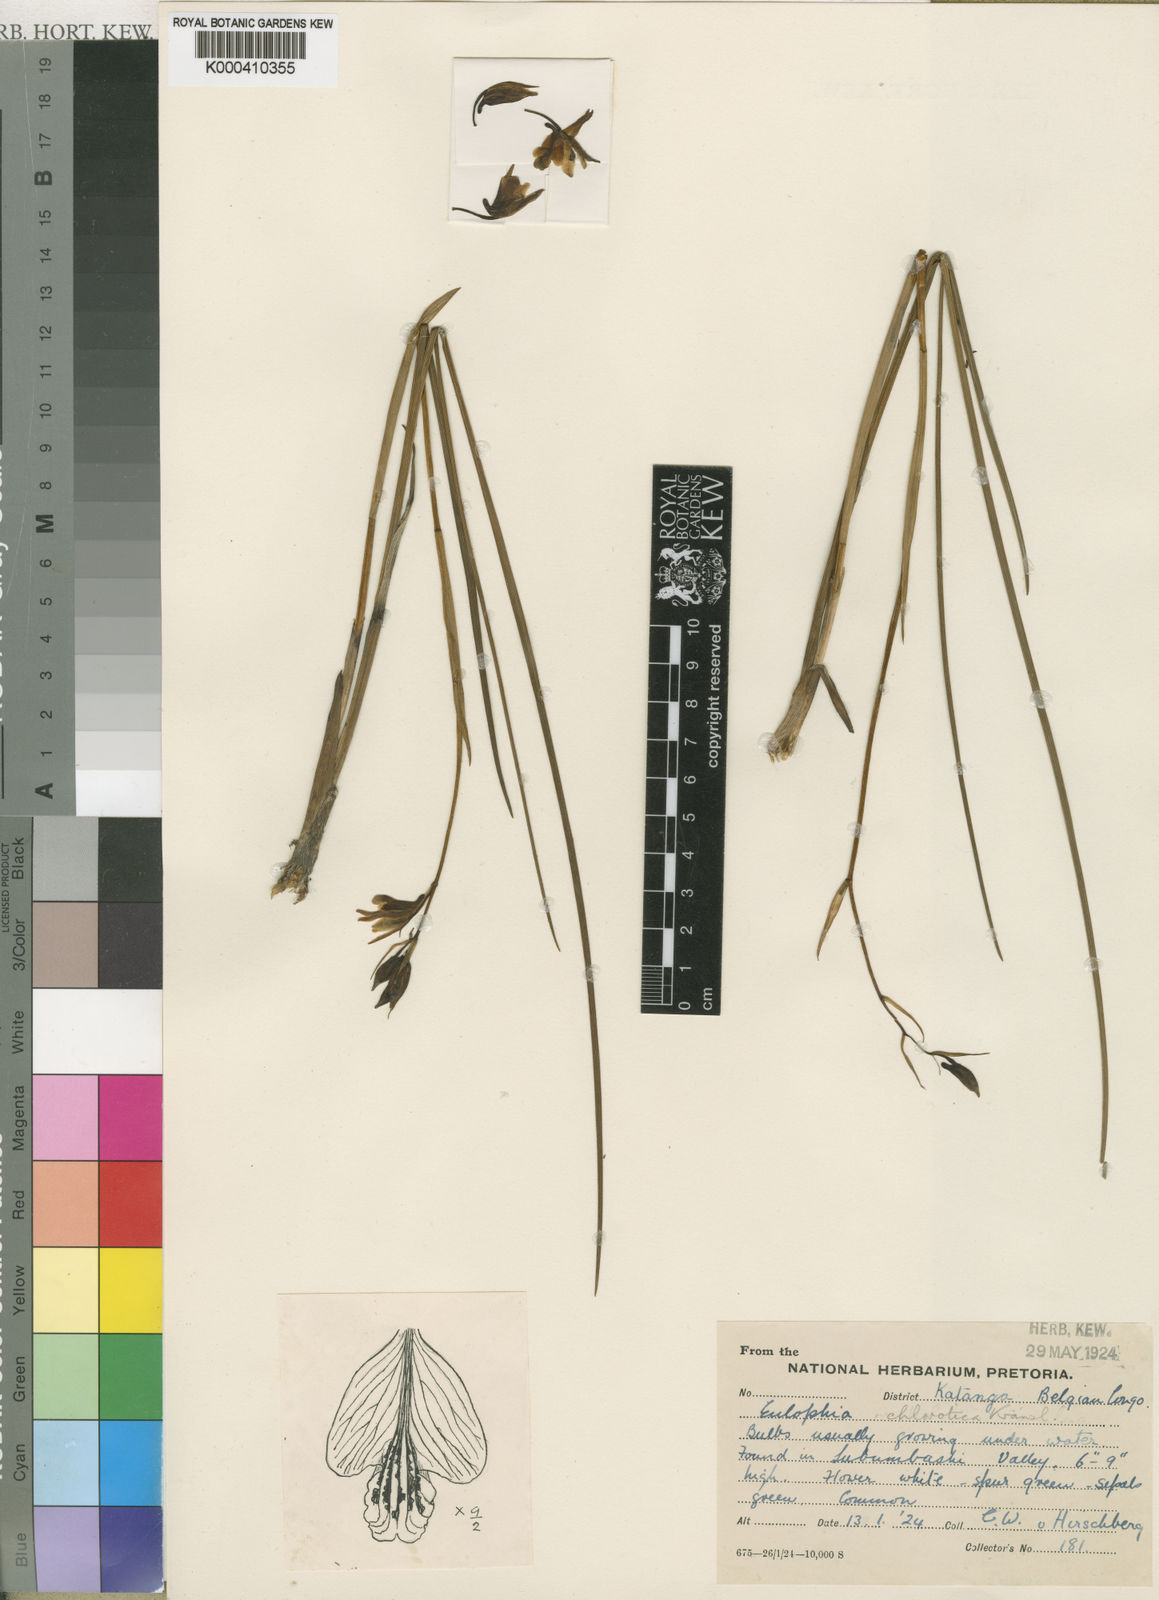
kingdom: Plantae
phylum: Tracheophyta
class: Liliopsida
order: Asparagales
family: Orchidaceae
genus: Eulophia
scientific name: Eulophia chlorotica
